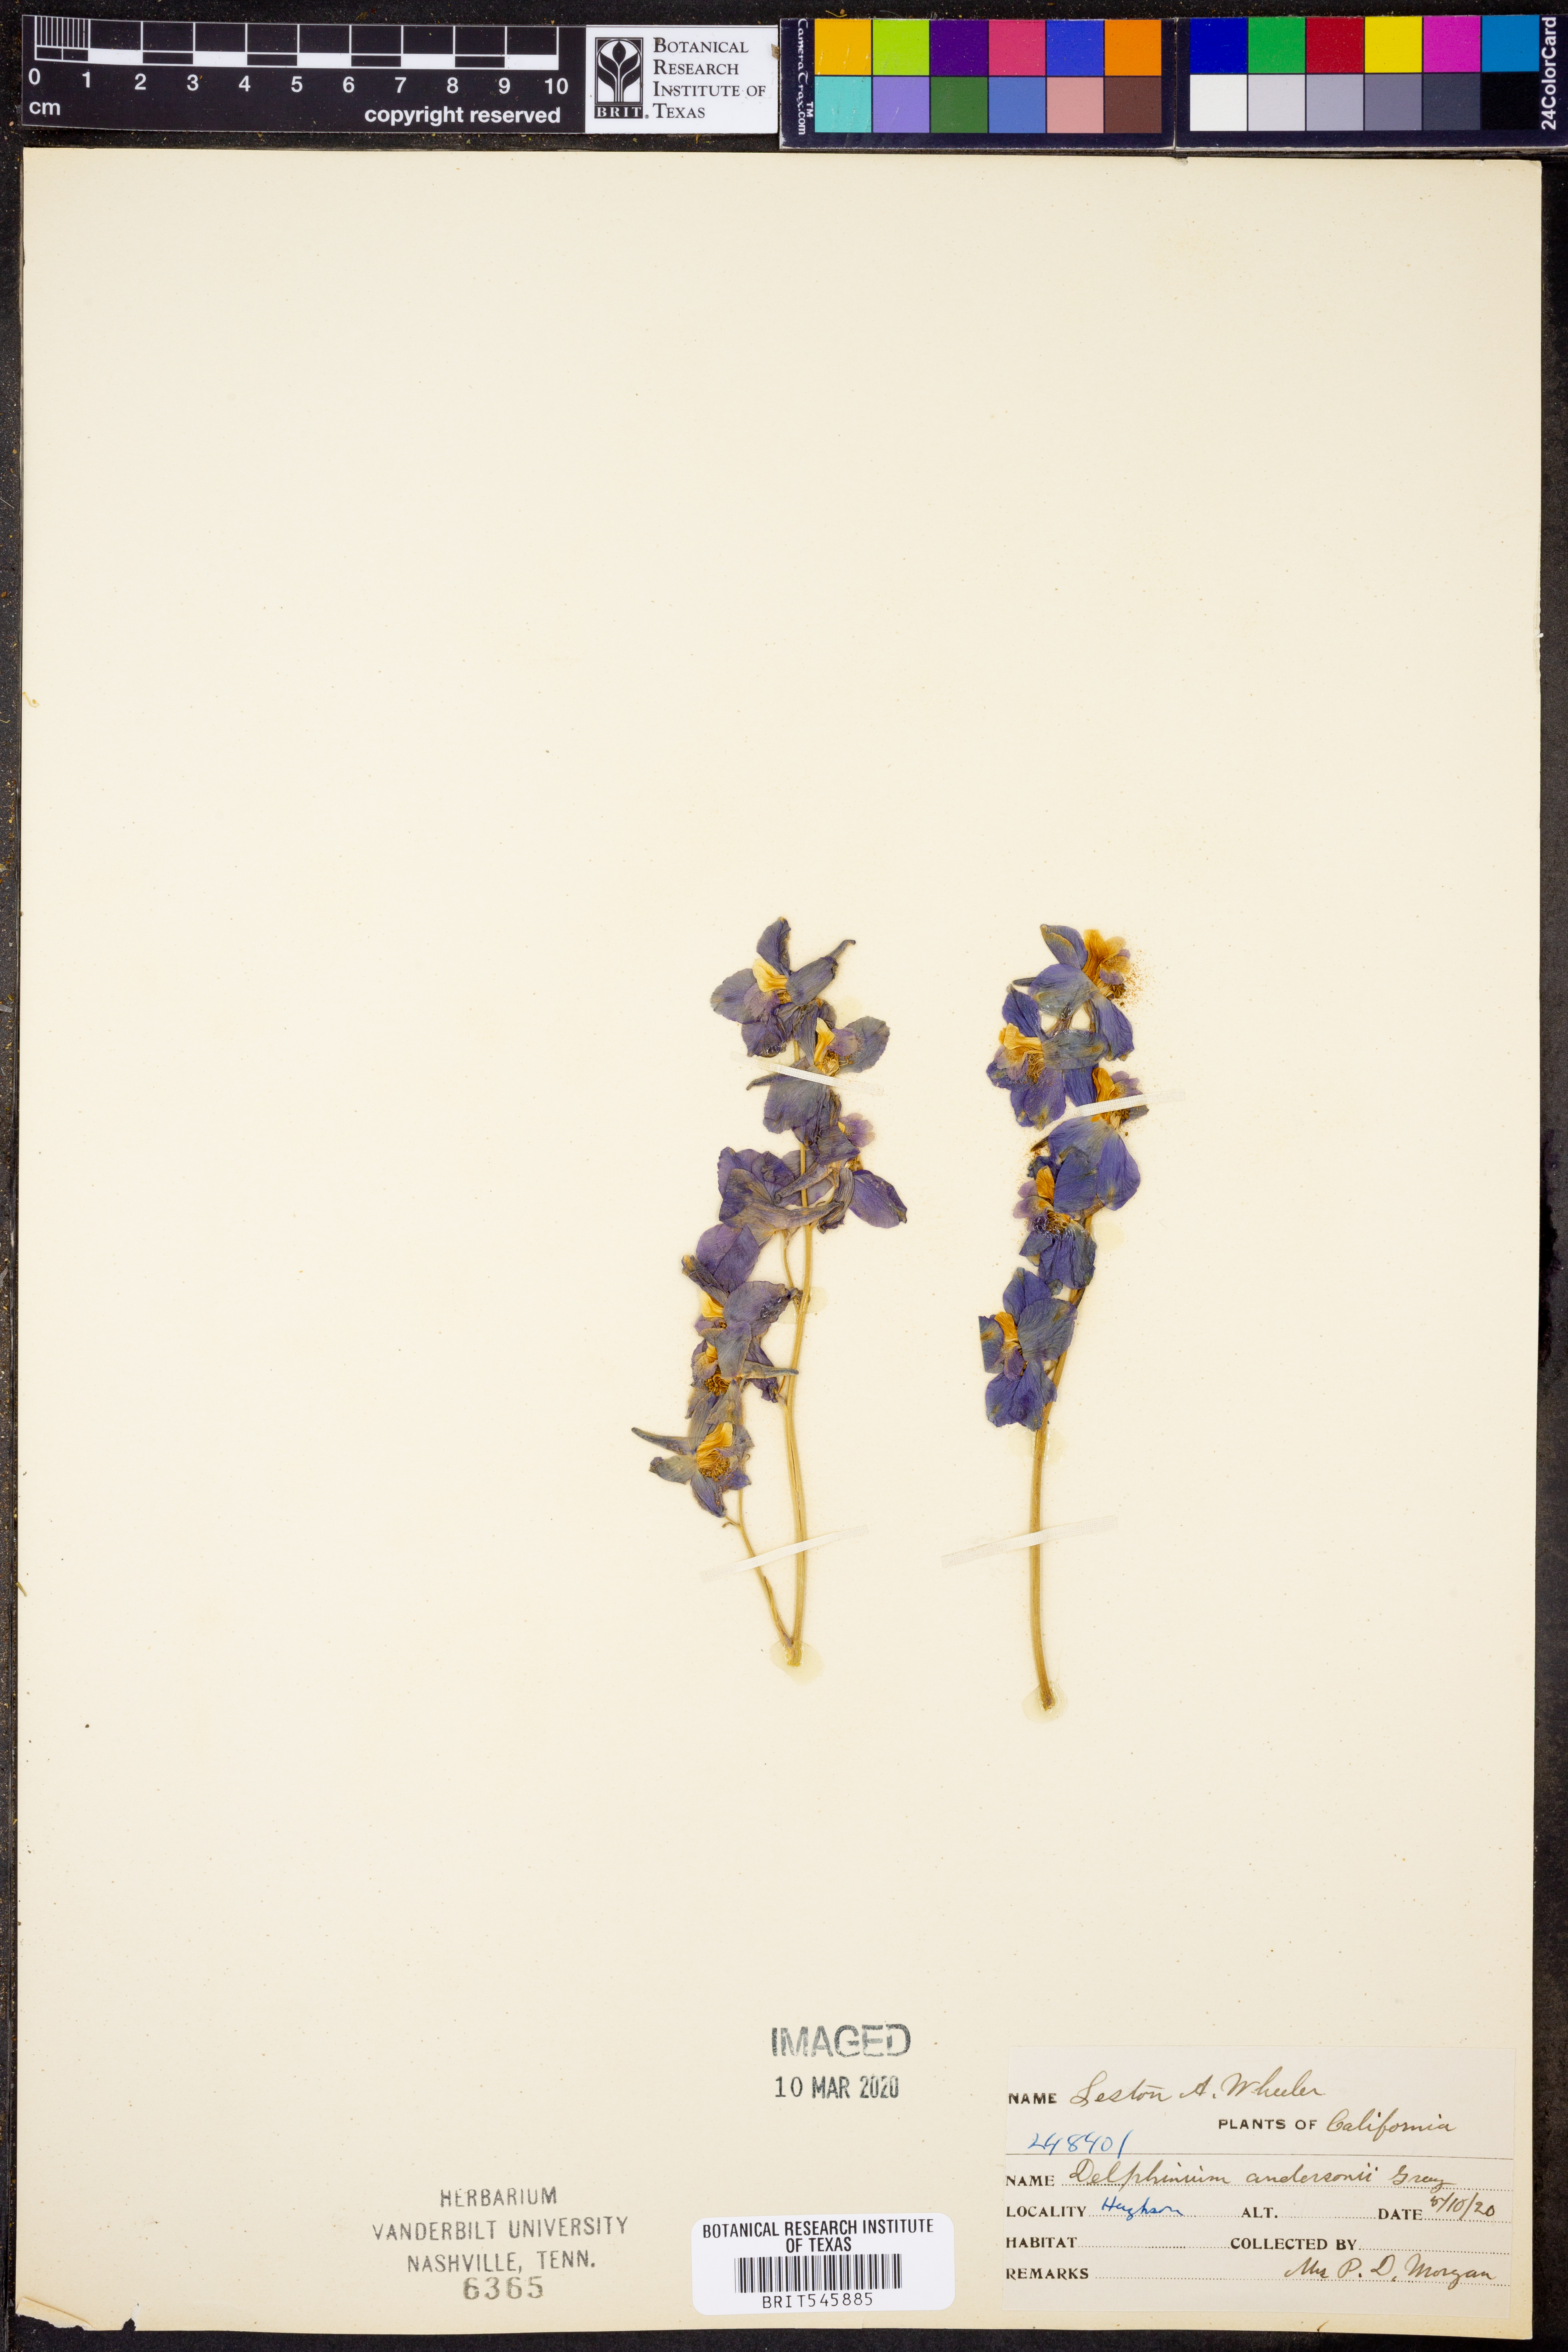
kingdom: Plantae
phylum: Tracheophyta
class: Magnoliopsida
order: Ranunculales
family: Ranunculaceae
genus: Delphinium
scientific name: Delphinium andersonii
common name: Anderson's larkspur
